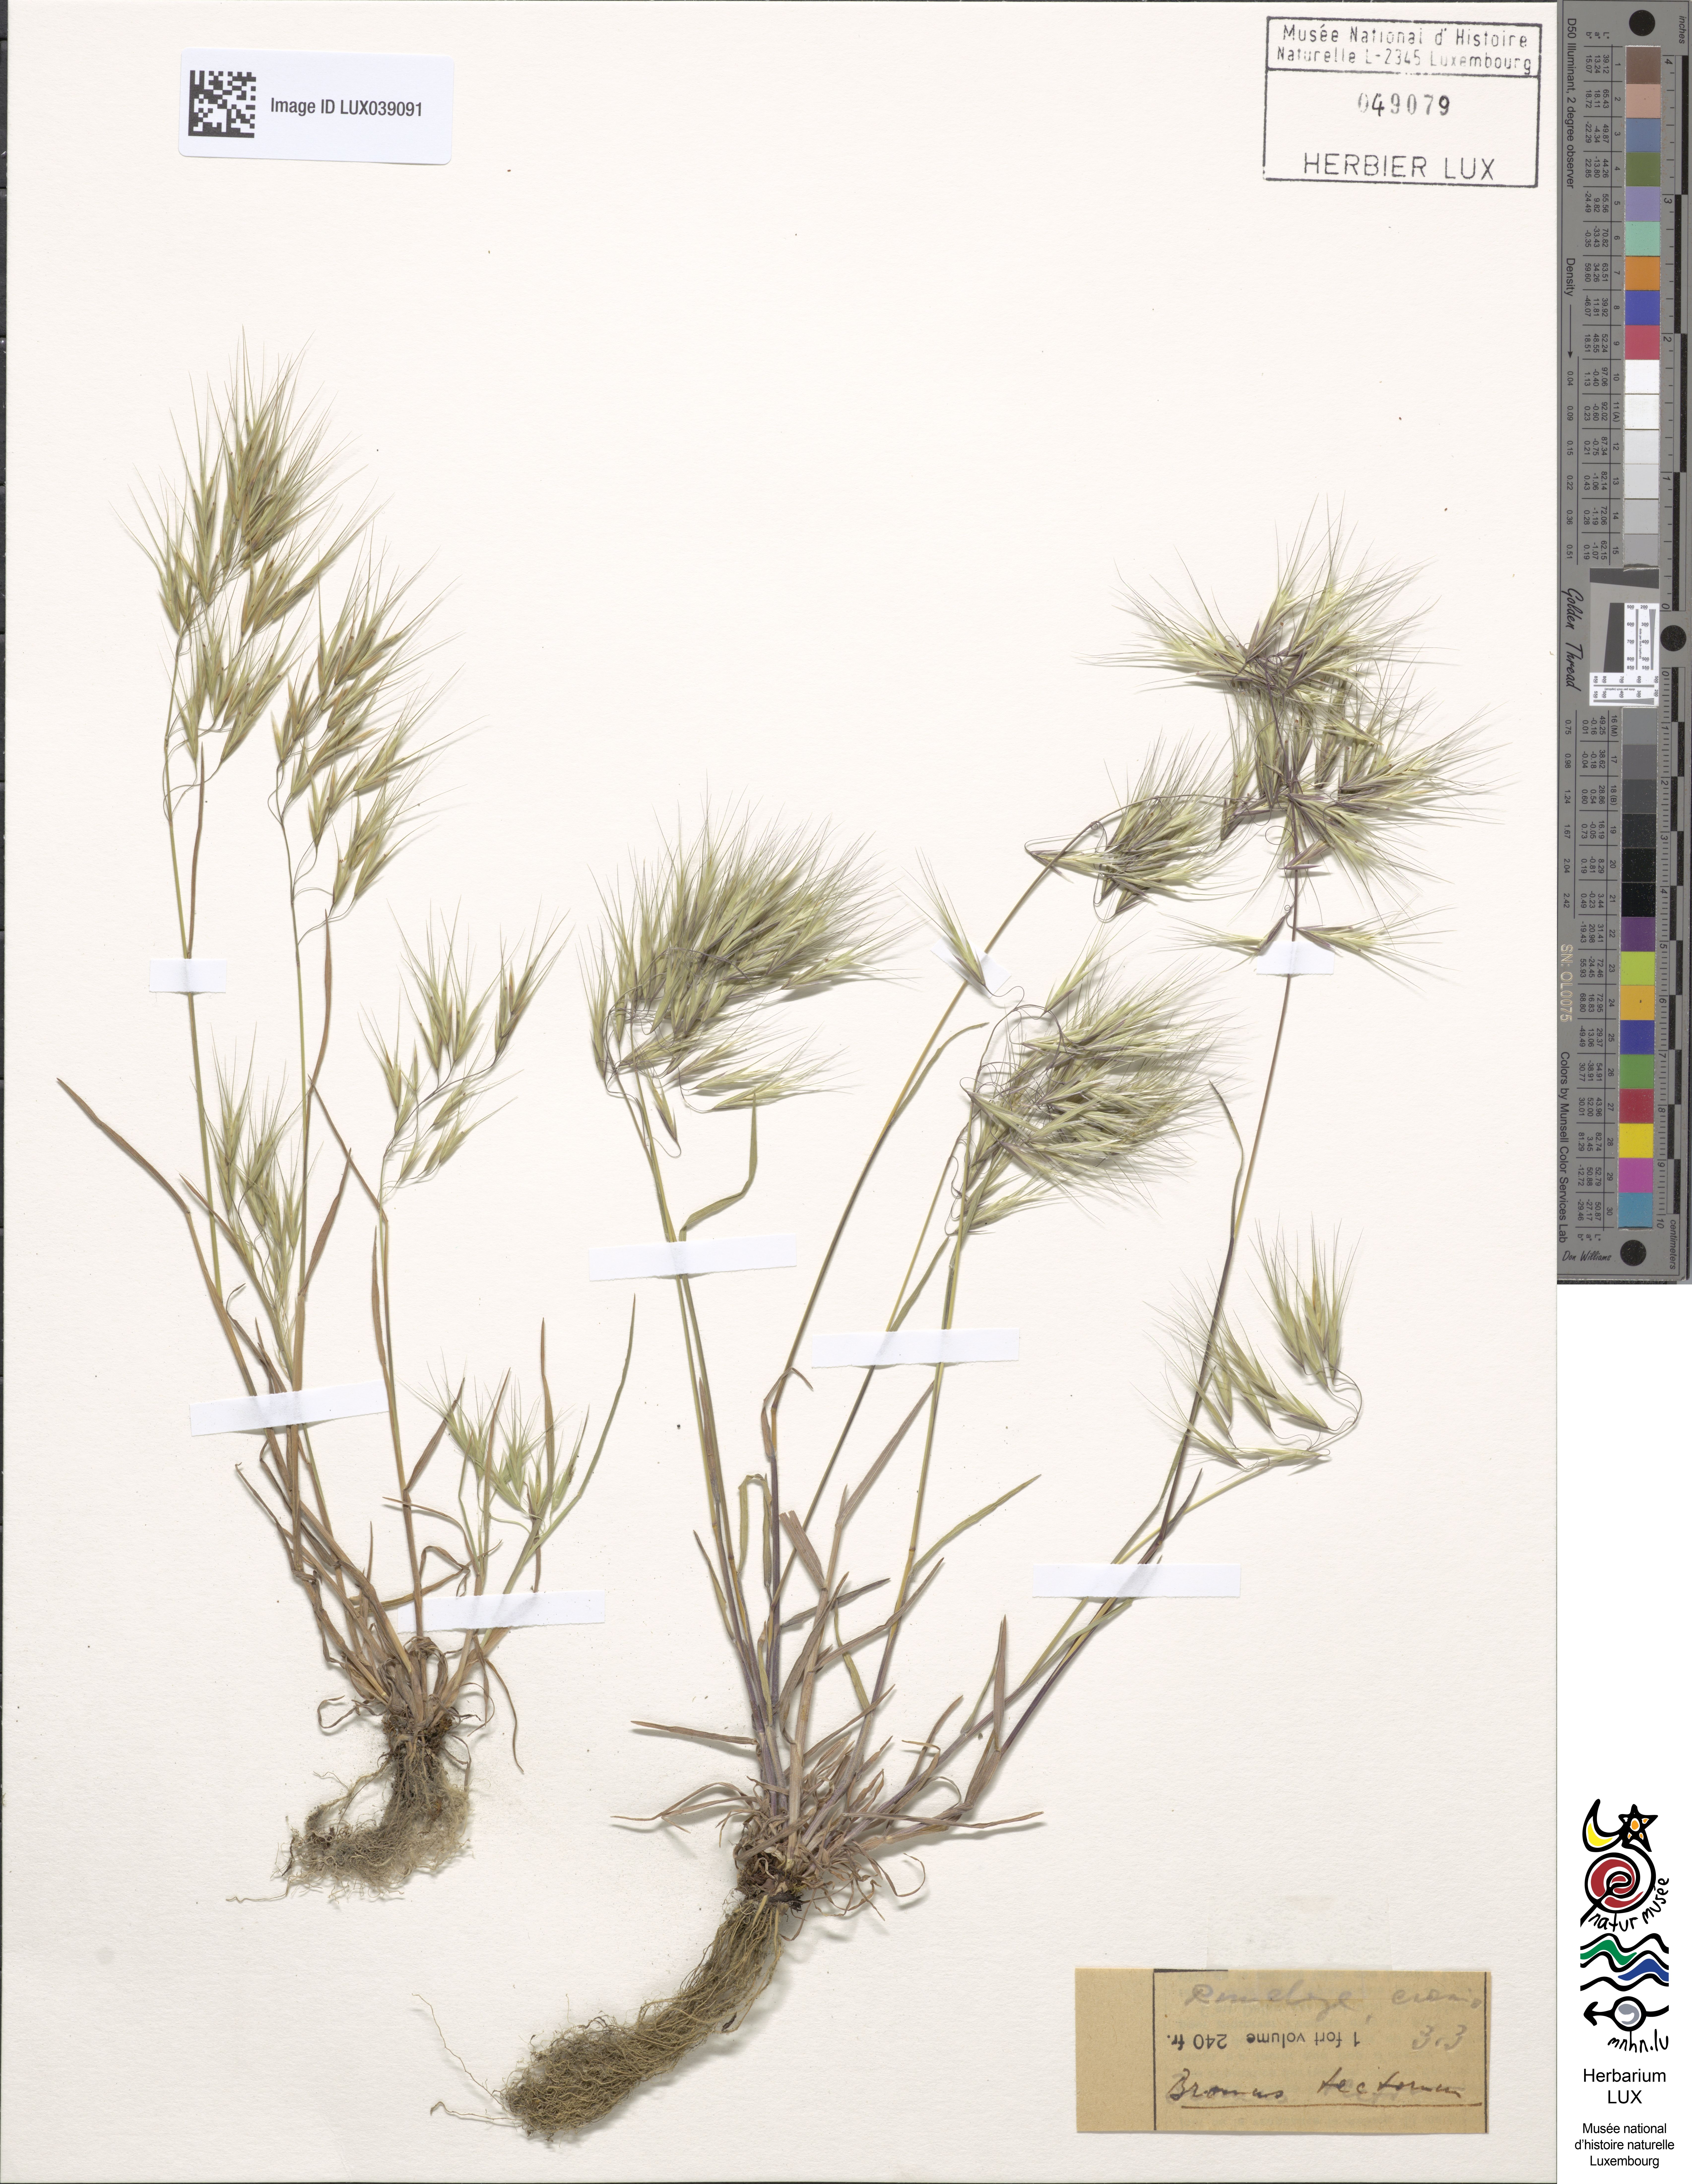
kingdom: Plantae
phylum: Tracheophyta
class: Liliopsida
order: Poales
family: Poaceae
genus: Bromus
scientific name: Bromus tectorum
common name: Cheatgrass
